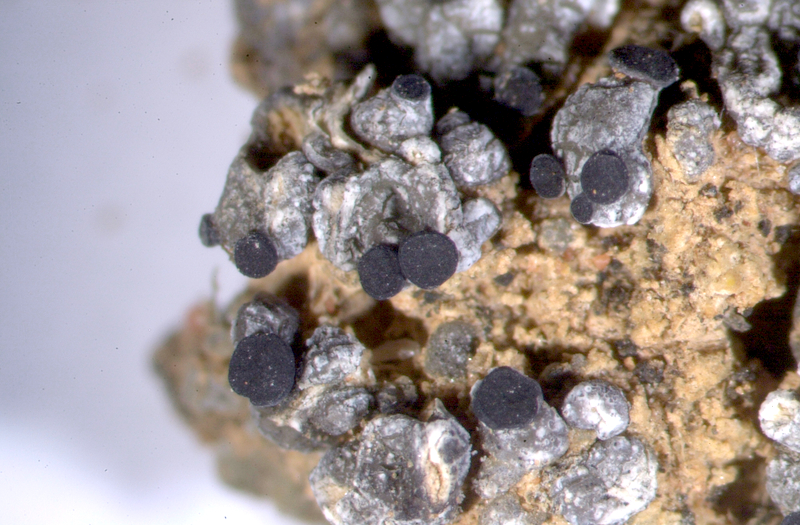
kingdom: Fungi
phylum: Ascomycota
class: Lecanoromycetes
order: Lecanorales
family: Ramalinaceae
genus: Bibbya
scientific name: Bibbya ruginosa
